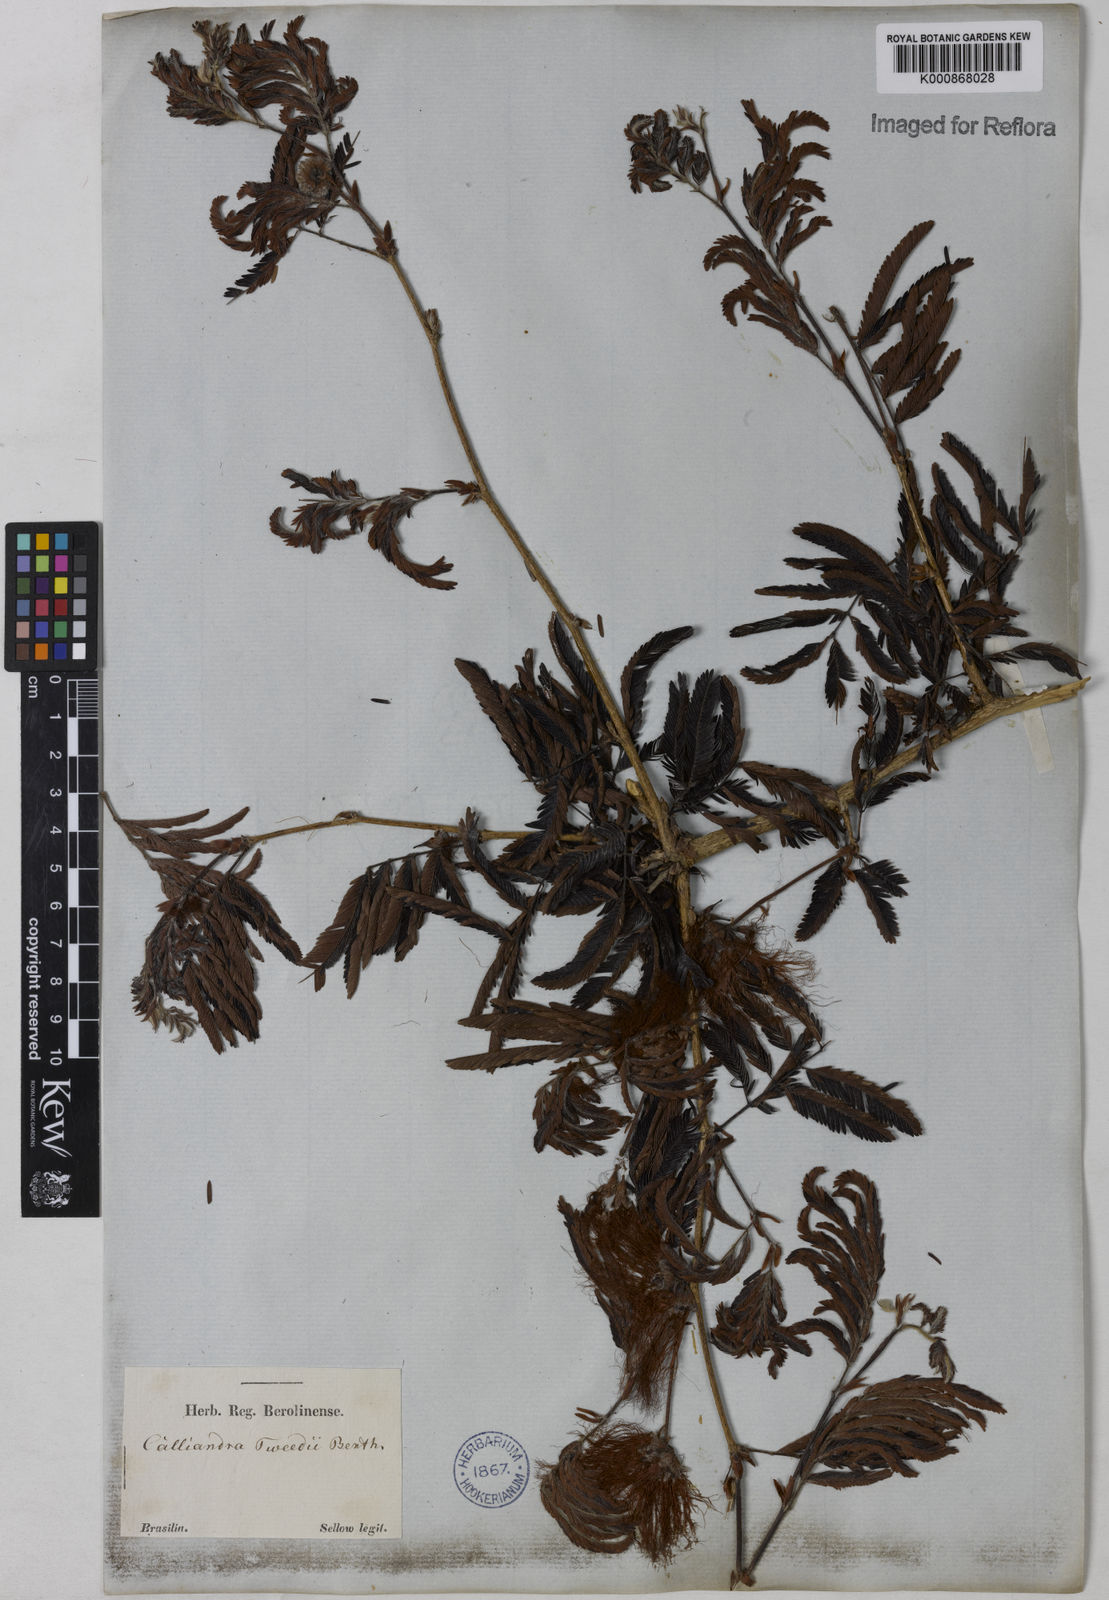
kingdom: Plantae
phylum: Tracheophyta
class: Magnoliopsida
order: Fabales
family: Fabaceae
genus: Calliandra
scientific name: Calliandra tweediei
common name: Mexican flamebush
